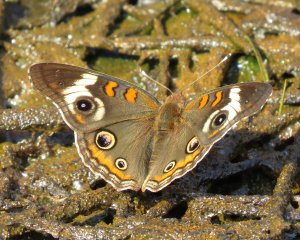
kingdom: Animalia
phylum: Arthropoda
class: Insecta
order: Lepidoptera
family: Nymphalidae
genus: Junonia
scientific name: Junonia coenia
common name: Common Buckeye
